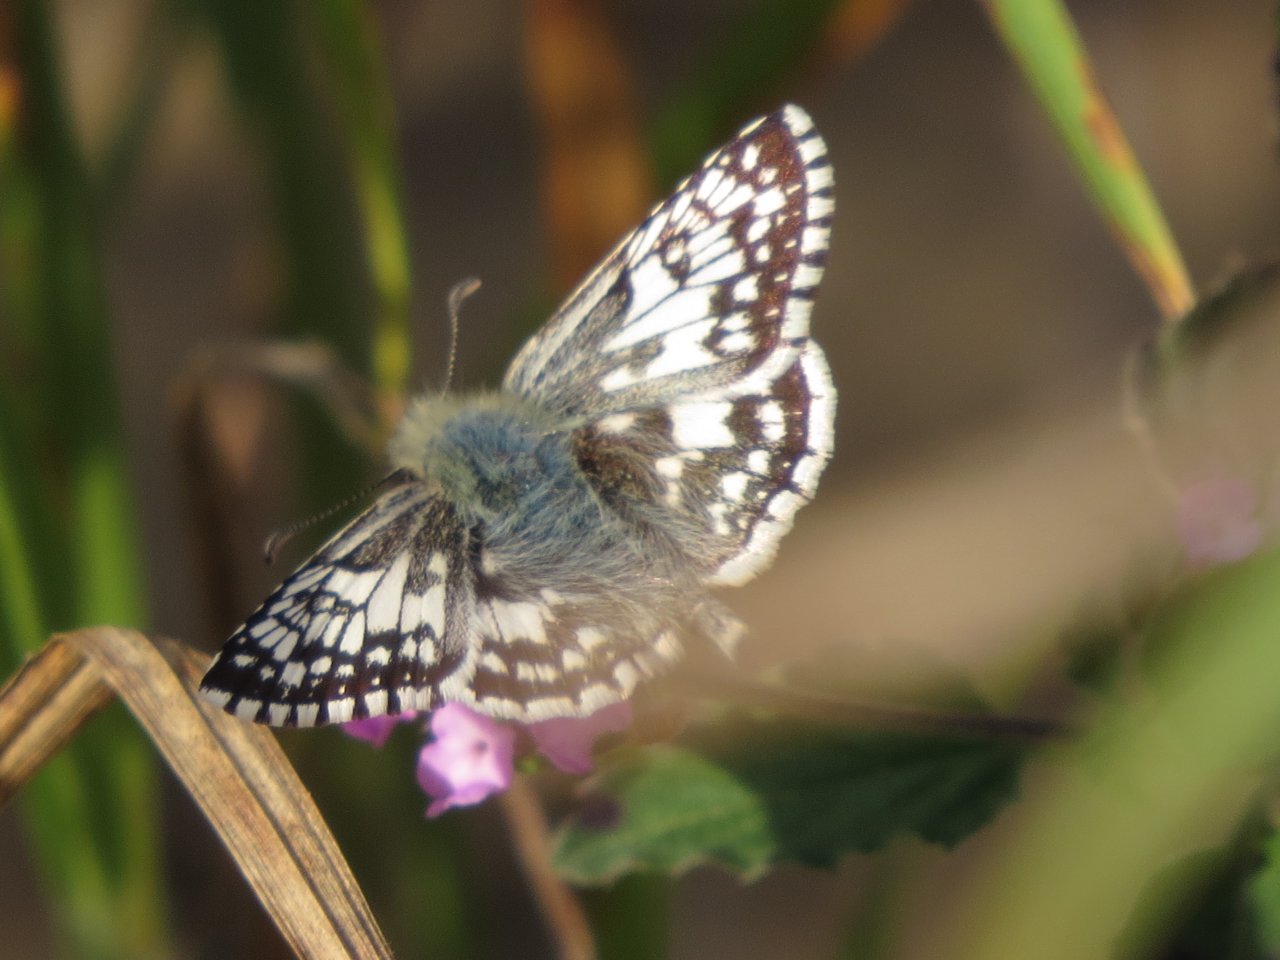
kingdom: Animalia
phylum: Arthropoda
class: Insecta
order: Lepidoptera
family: Hesperiidae
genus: Pyrgus
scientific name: Pyrgus communis
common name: Common Checkered-Skipper
